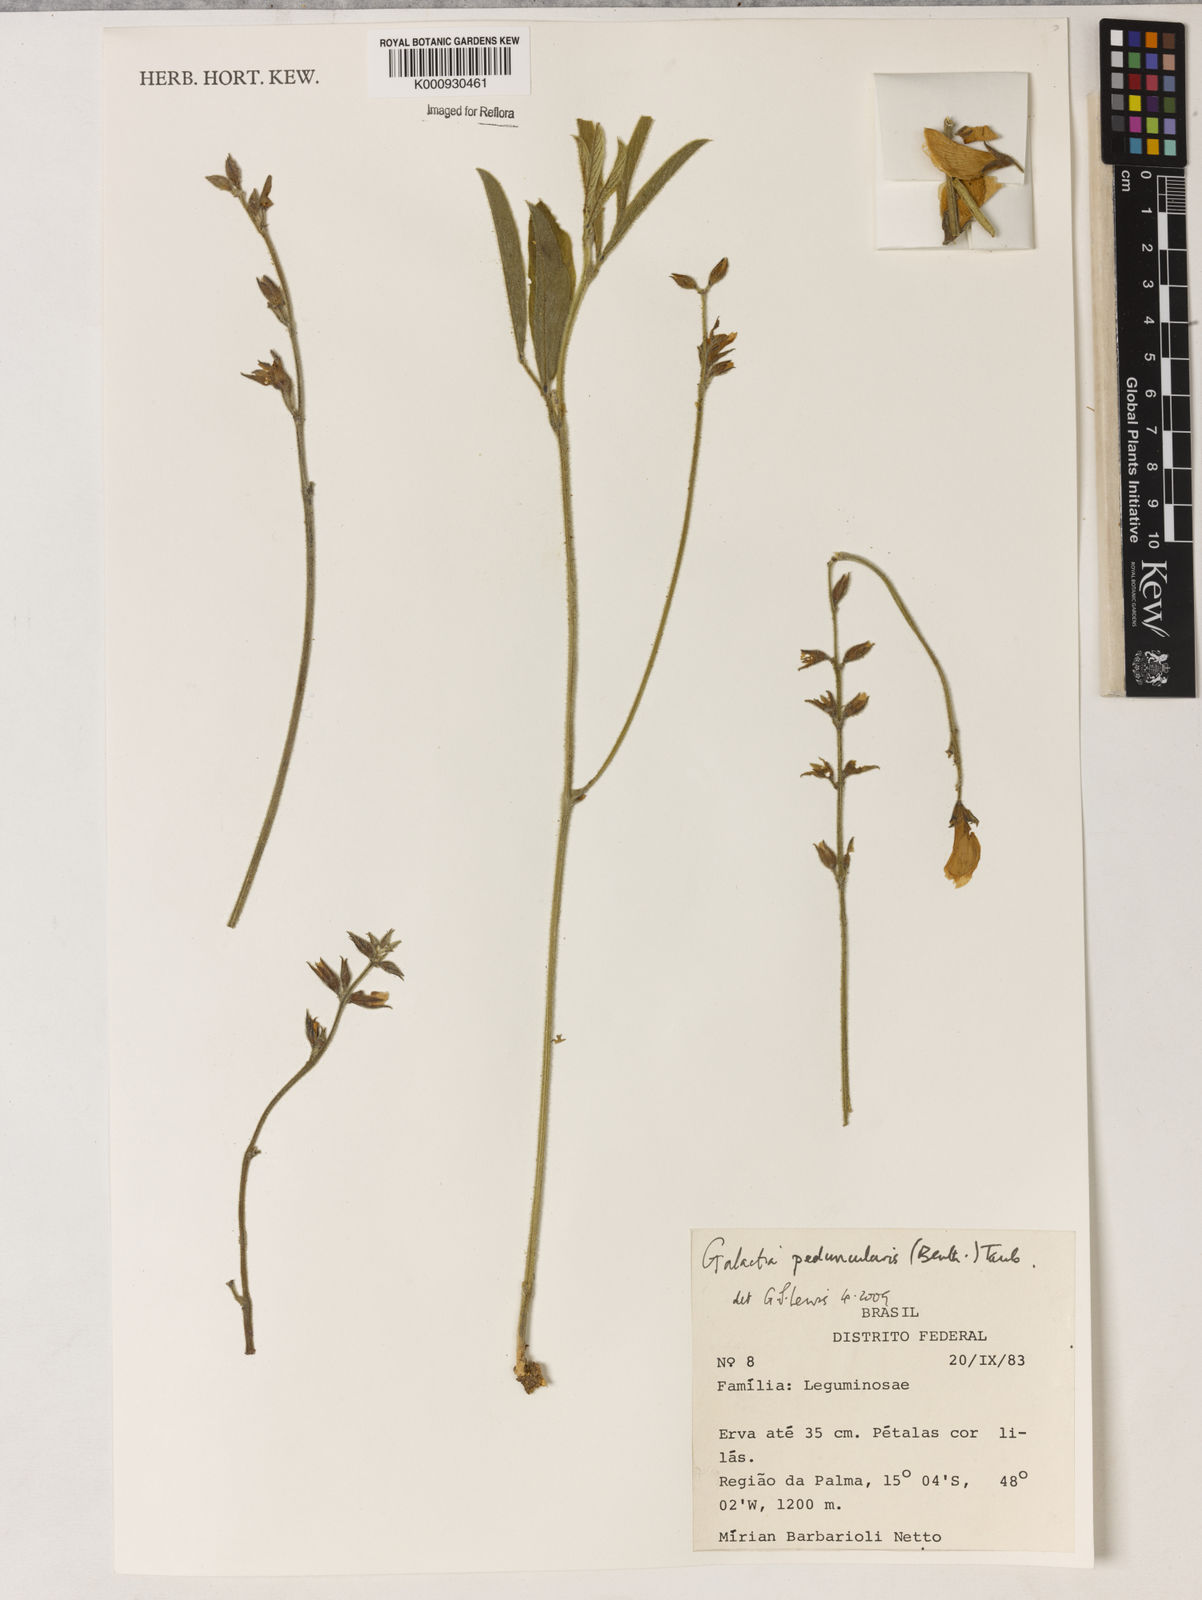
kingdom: Plantae
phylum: Tracheophyta
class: Magnoliopsida
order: Fabales
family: Fabaceae
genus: Galactia
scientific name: Galactia
